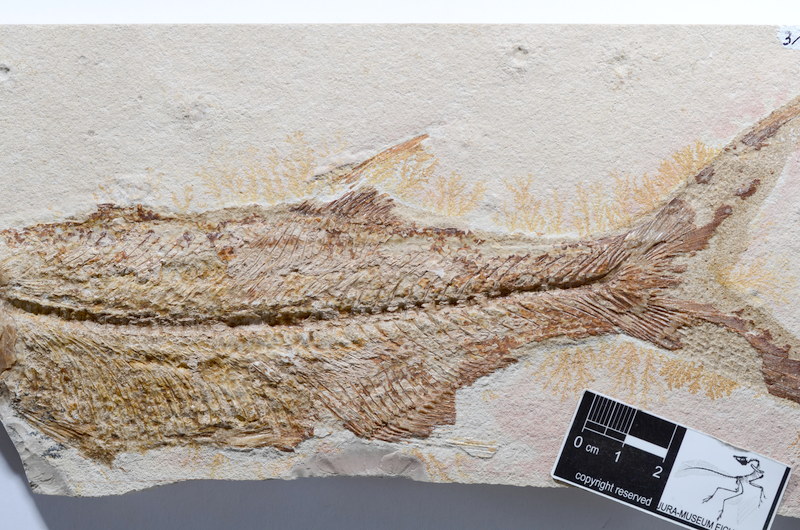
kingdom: Animalia
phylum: Chordata
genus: Pachythrissops
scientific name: Pachythrissops propterus
